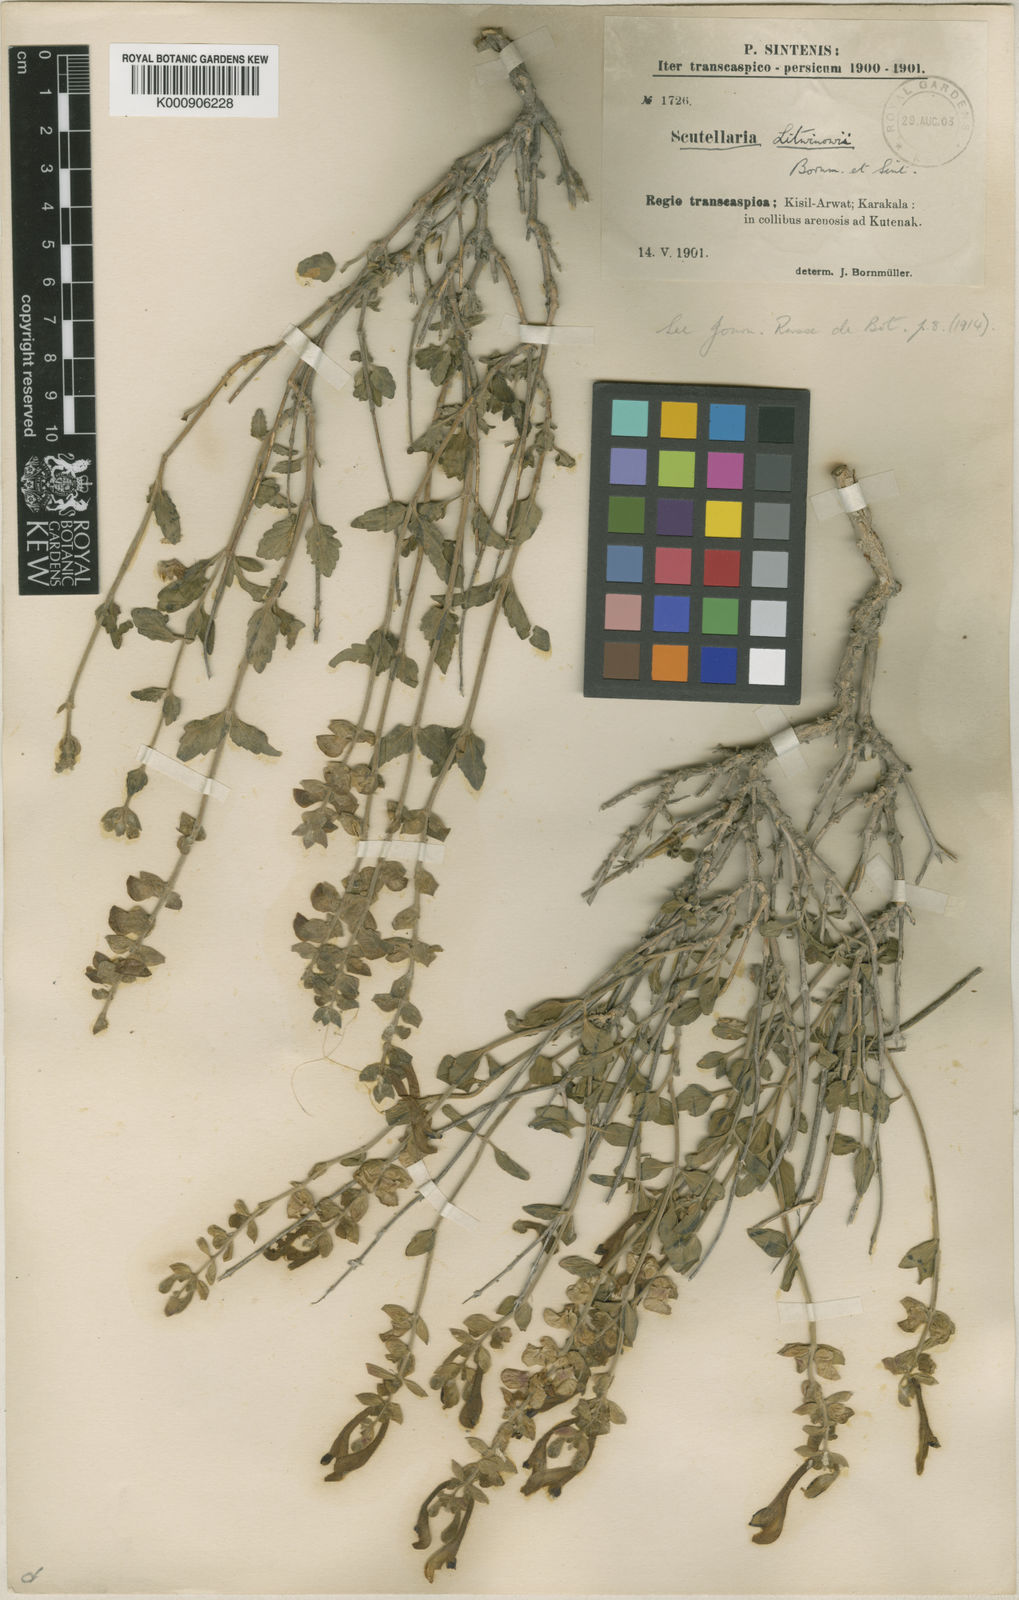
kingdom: Plantae
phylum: Tracheophyta
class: Magnoliopsida
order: Lamiales
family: Lamiaceae
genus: Scutellaria
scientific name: Scutellaria multicaulis
